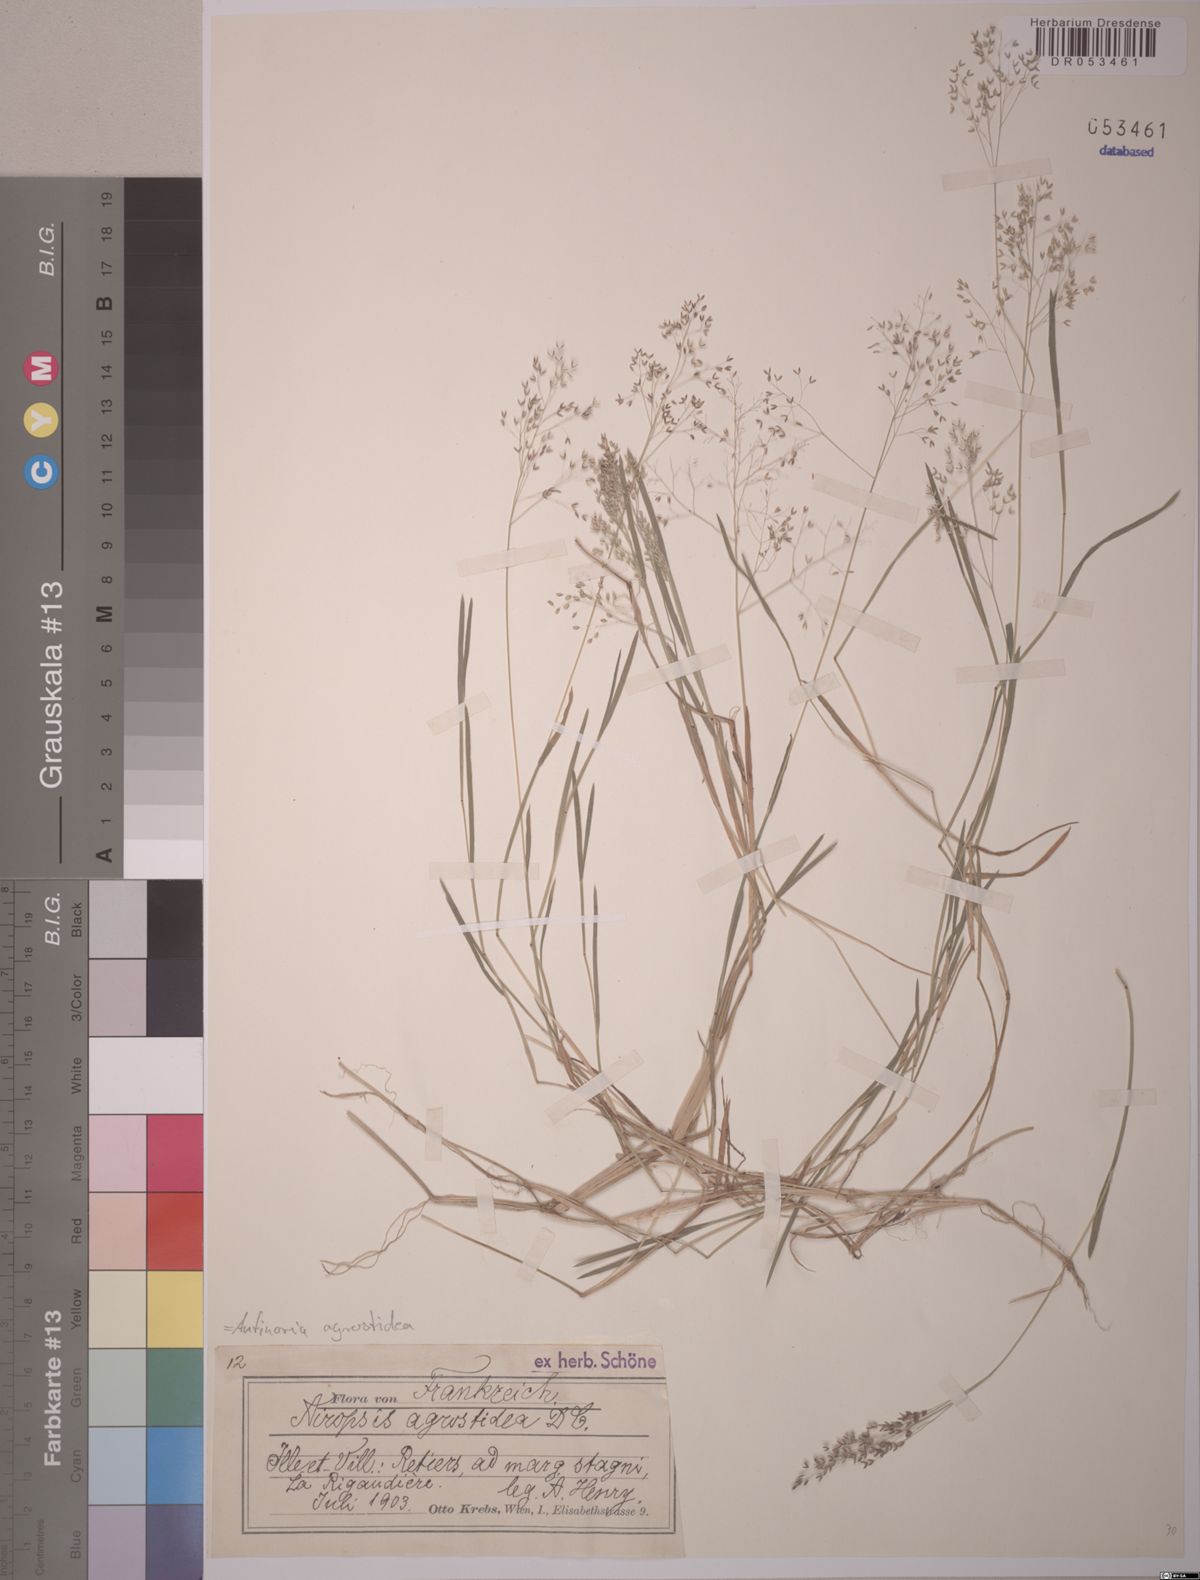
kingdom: Plantae
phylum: Tracheophyta
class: Liliopsida
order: Poales
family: Poaceae
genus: Antinoria
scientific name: Antinoria agrostidea
